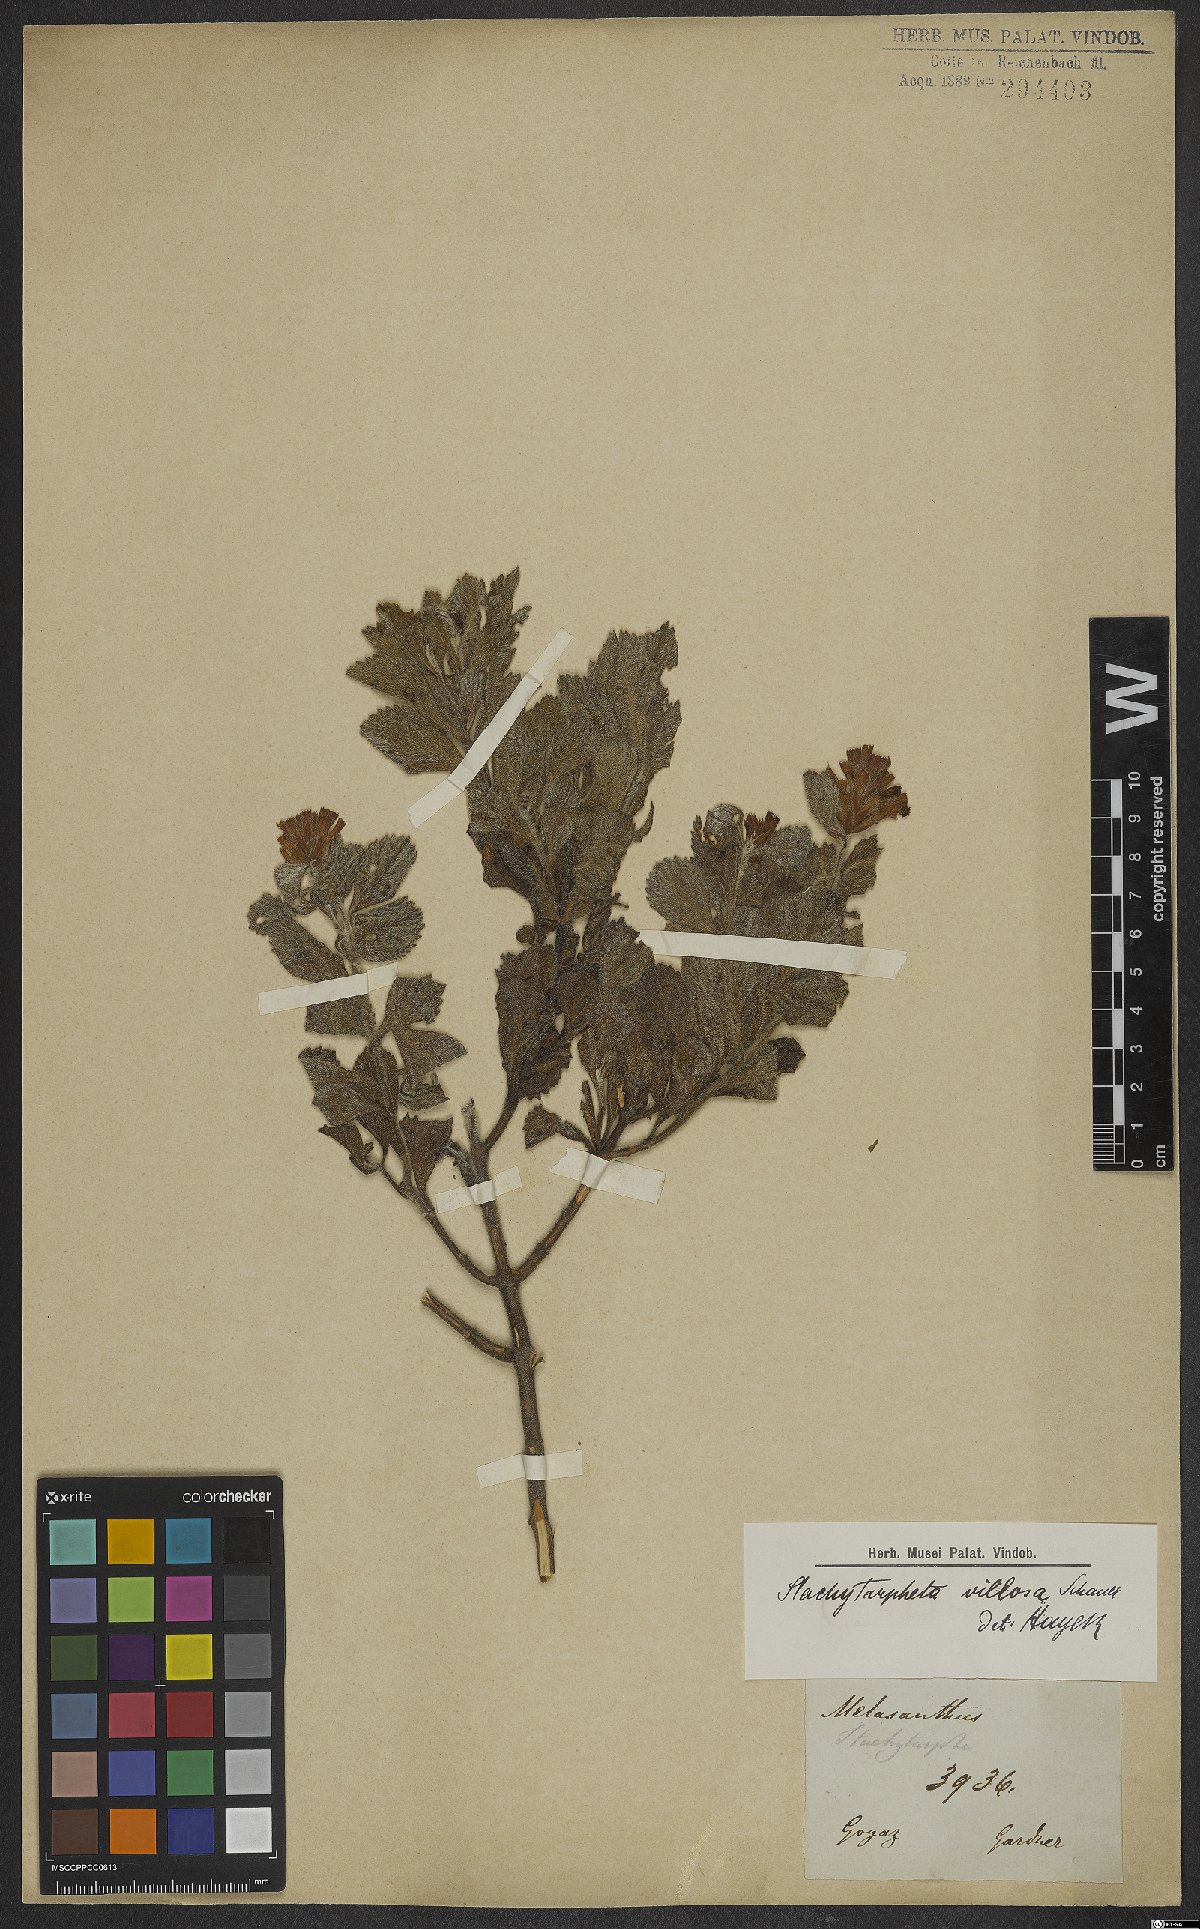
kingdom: Plantae
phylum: Tracheophyta
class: Magnoliopsida
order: Lamiales
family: Verbenaceae
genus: Stachytarpheta
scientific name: Stachytarpheta villosa
